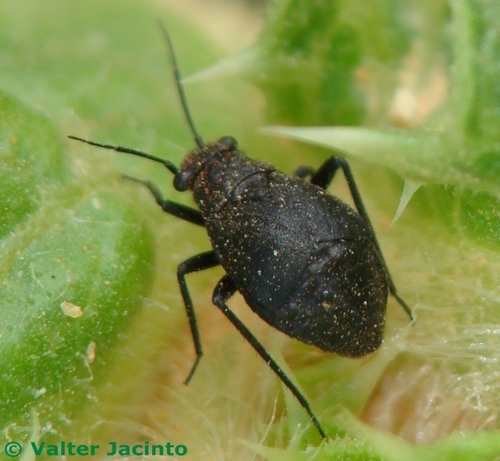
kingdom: Animalia
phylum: Arthropoda
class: Insecta
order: Hemiptera
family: Miridae
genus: Orthocephalus
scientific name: Orthocephalus
